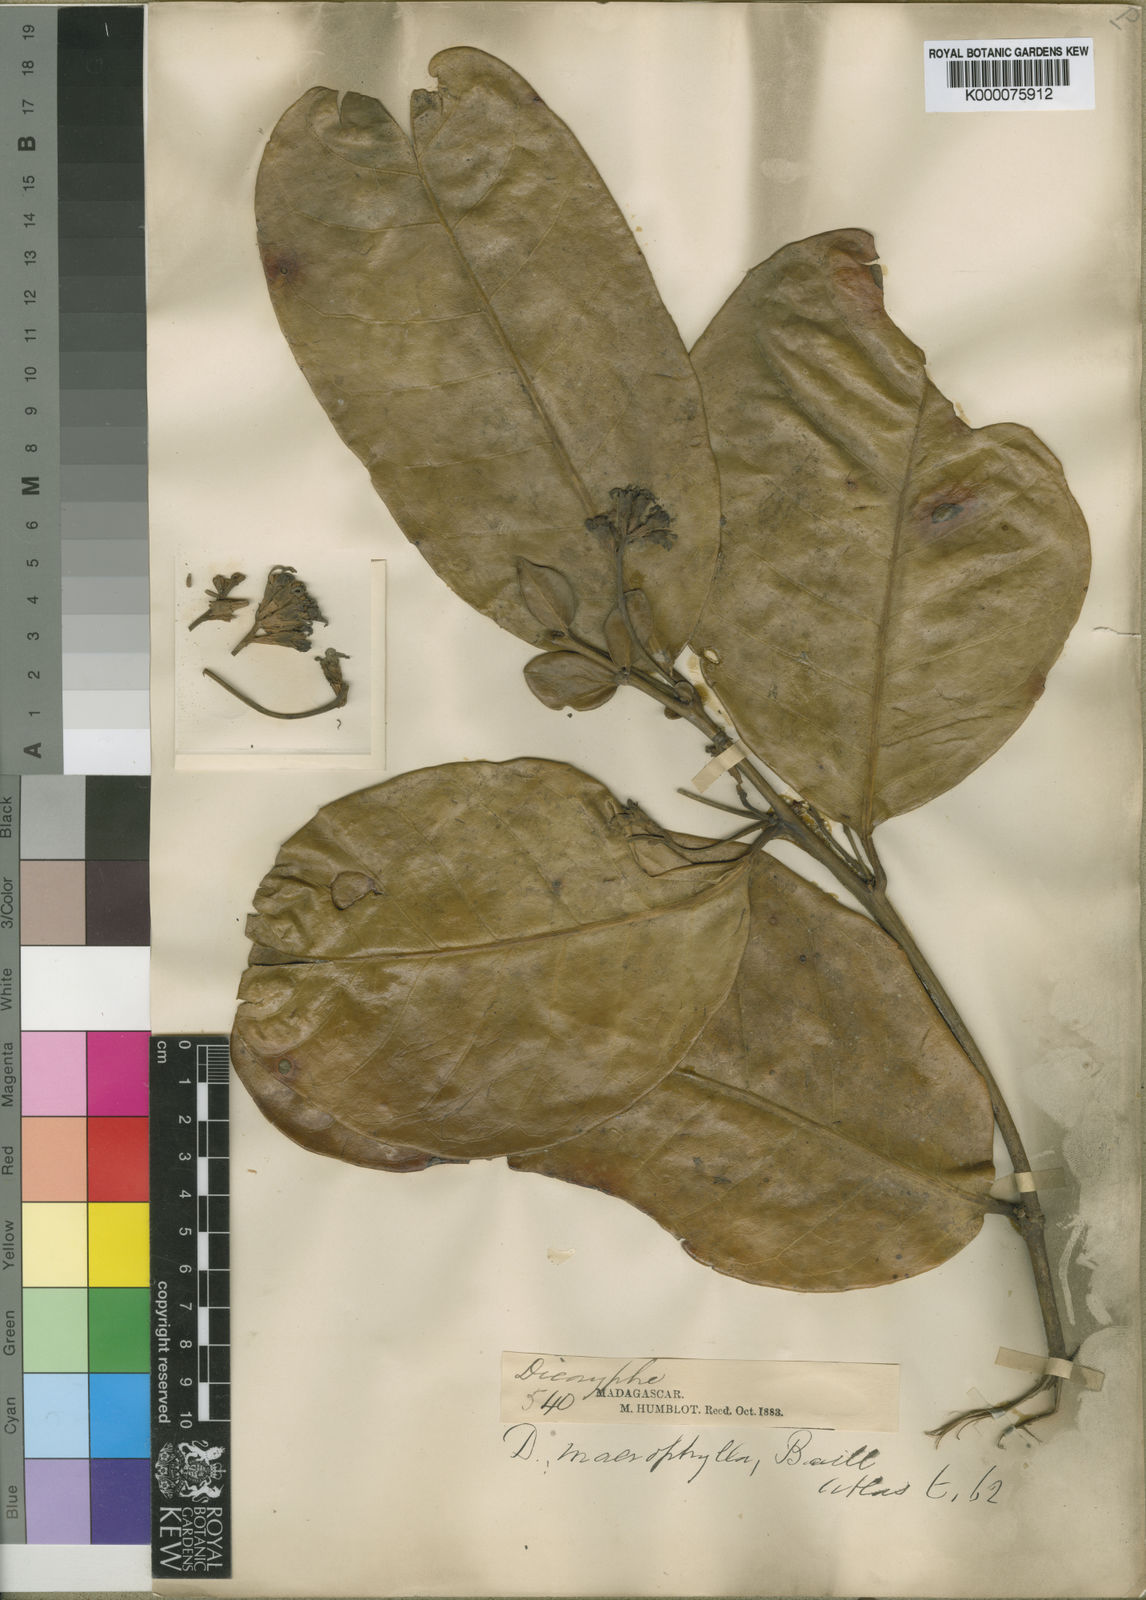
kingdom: Plantae
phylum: Tracheophyta
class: Magnoliopsida
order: Saxifragales
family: Hamamelidaceae
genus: Dicoryphe
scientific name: Dicoryphe macrophylla
